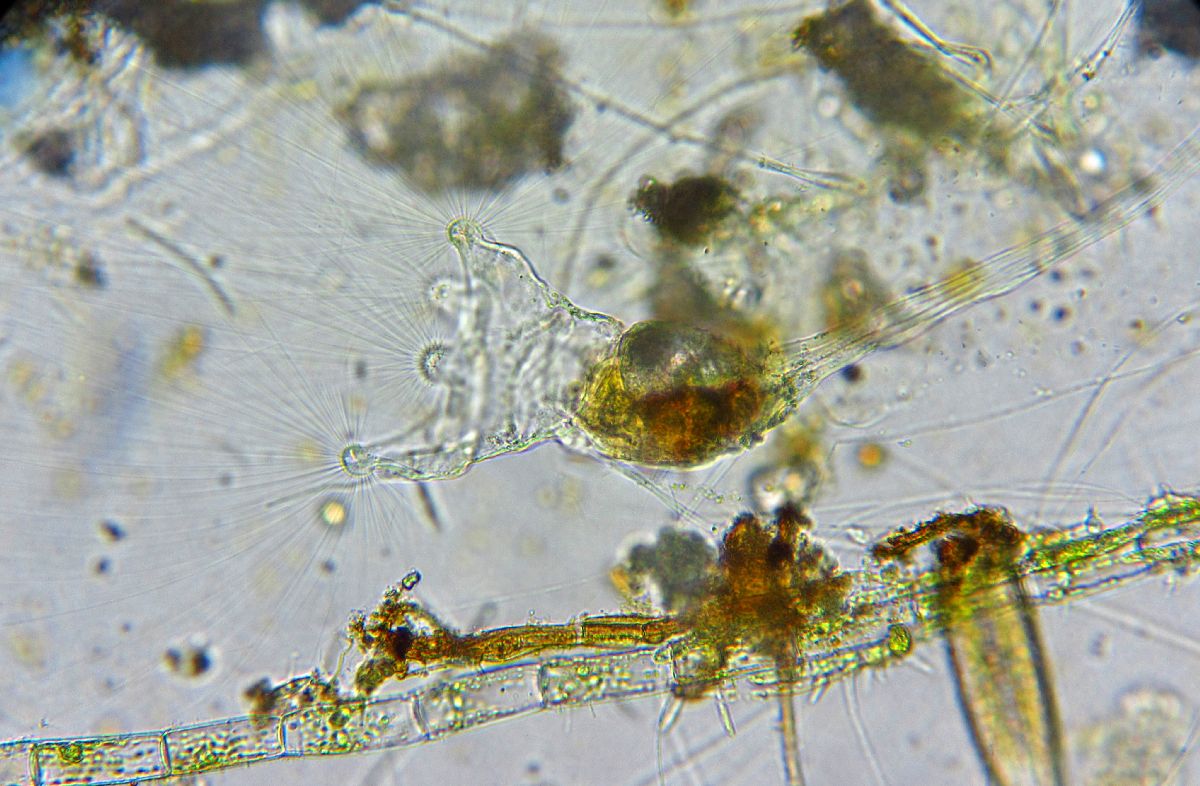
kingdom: Animalia
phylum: Rotifera
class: Eurotatoria
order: Collothecacea
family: Collothecidae
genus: Collotheca
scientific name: Collotheca ornata
